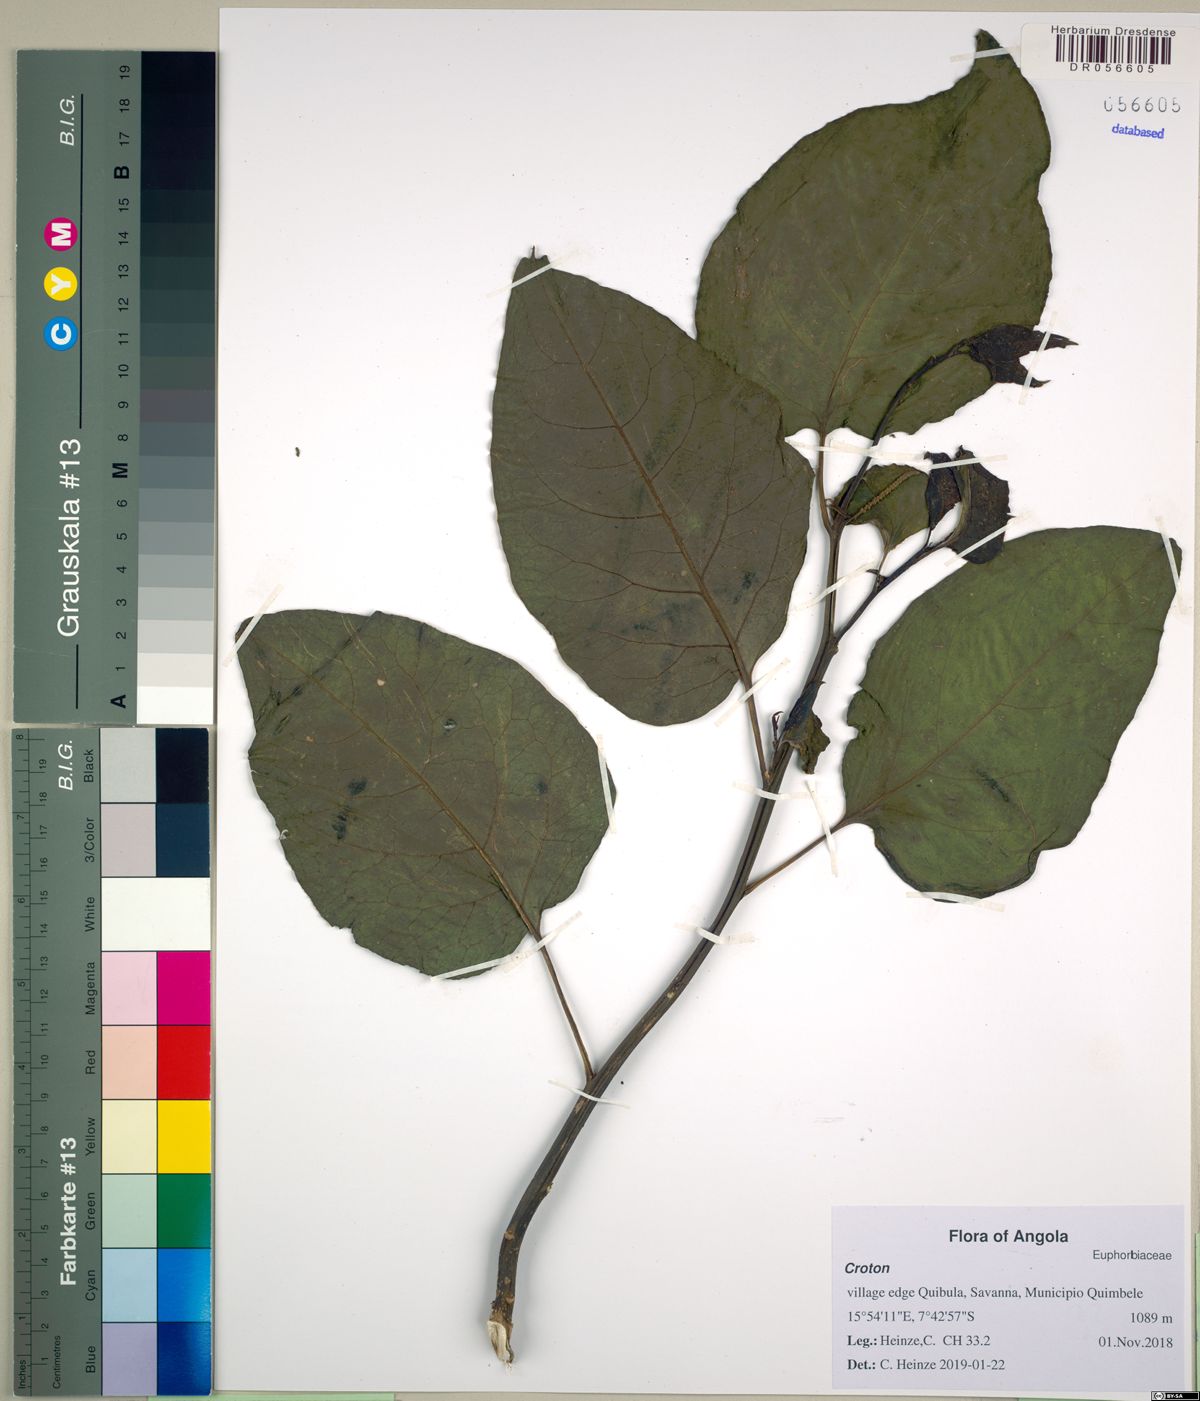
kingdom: Plantae
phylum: Tracheophyta
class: Magnoliopsida
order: Malpighiales
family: Euphorbiaceae
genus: Croton
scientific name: Croton
